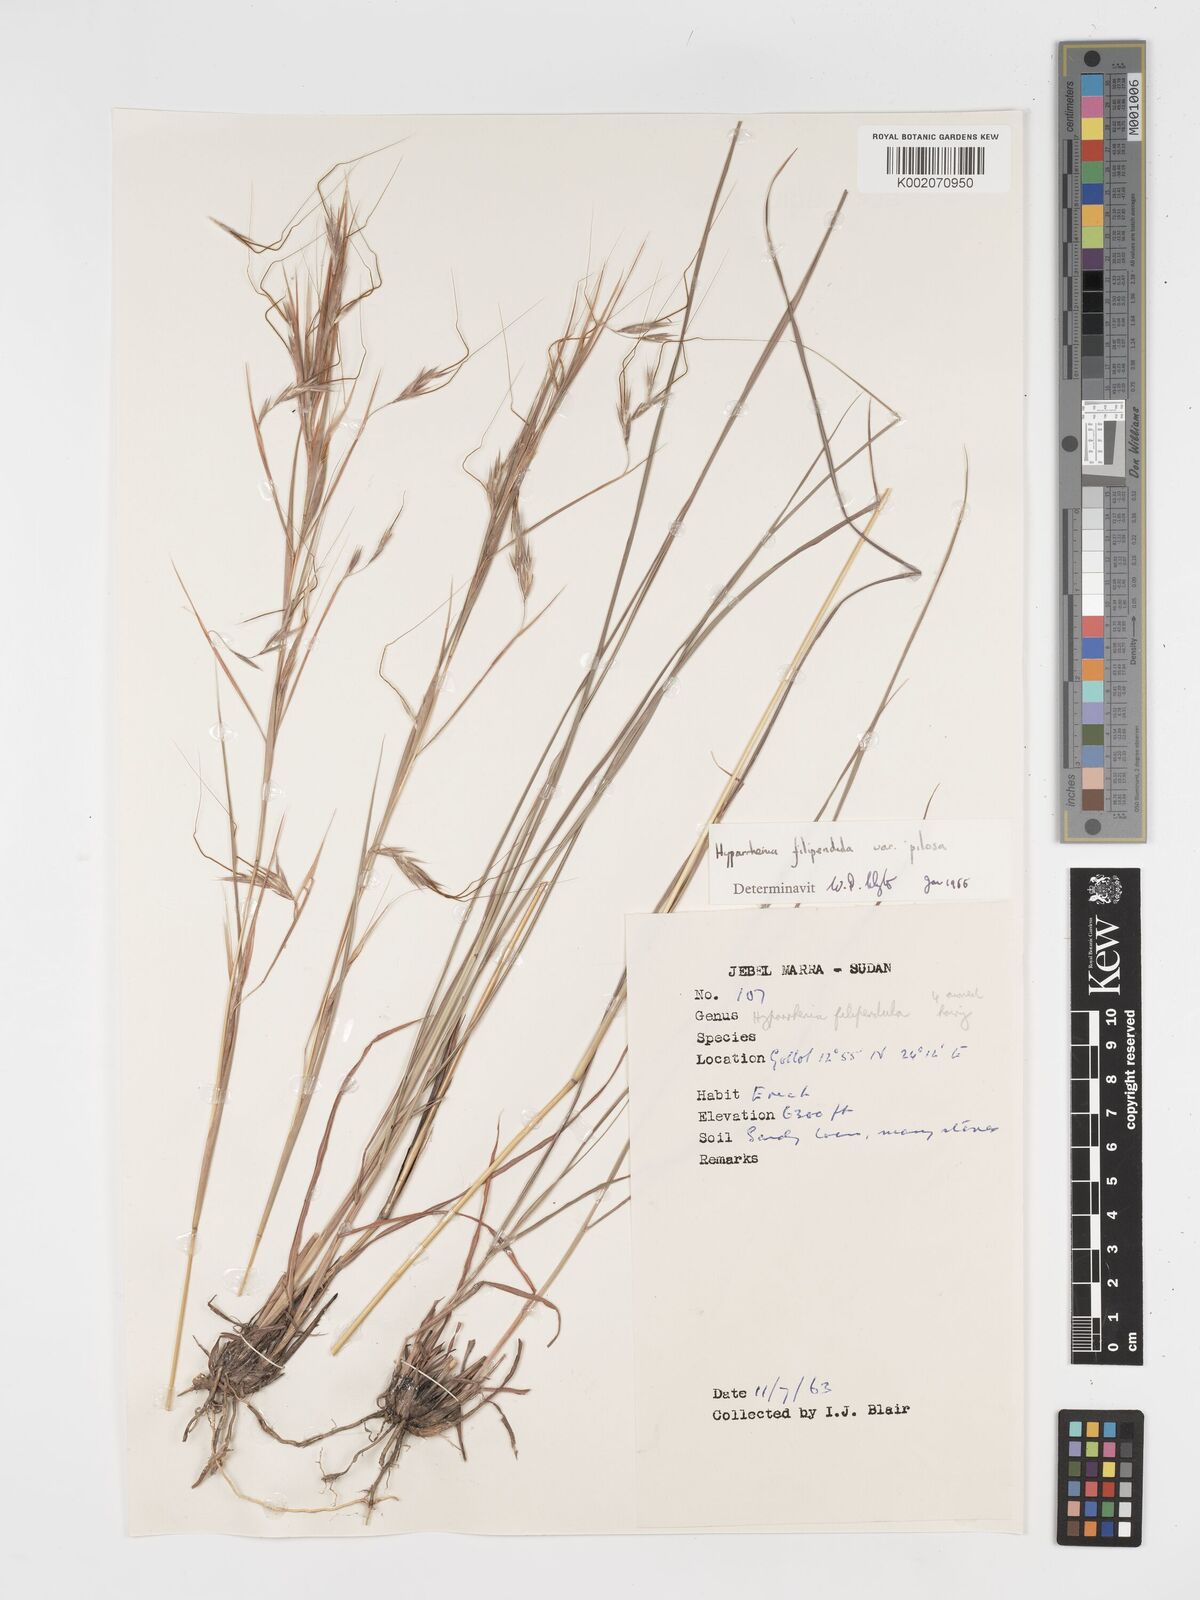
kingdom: Plantae
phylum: Tracheophyta
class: Liliopsida
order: Poales
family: Poaceae
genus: Hyparrhenia
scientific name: Hyparrhenia filipendula
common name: Tambookie grass
